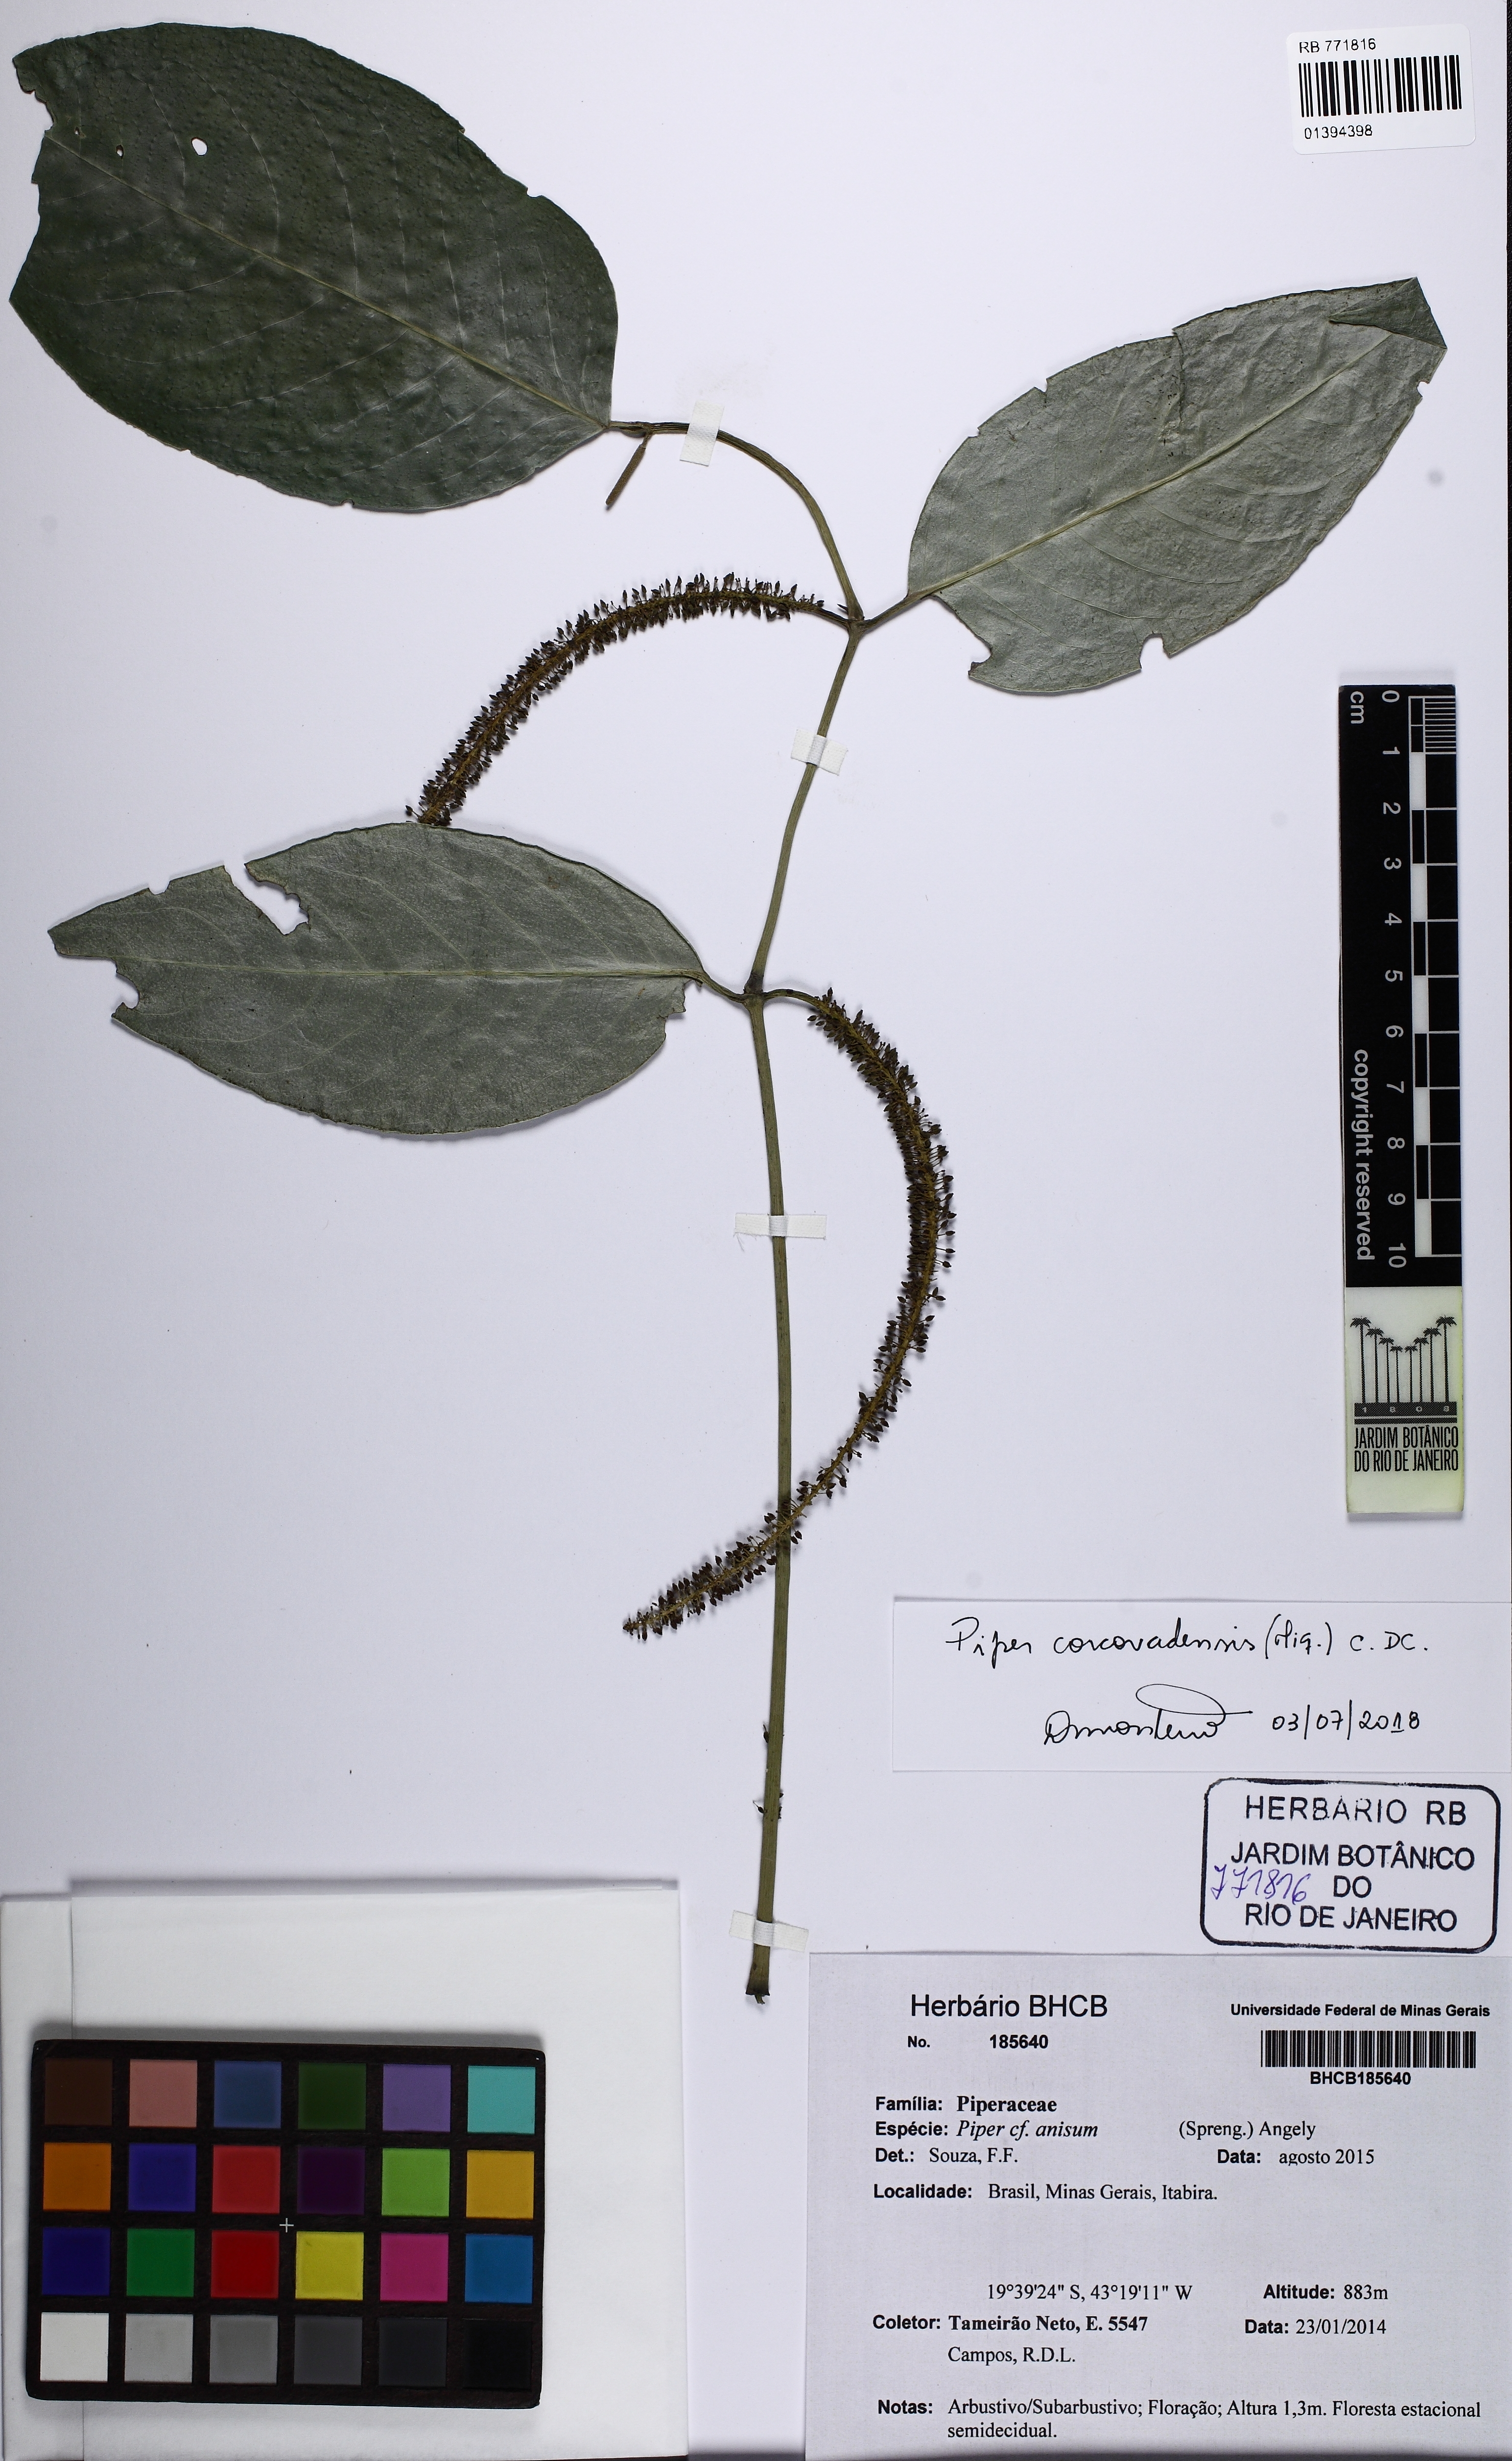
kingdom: Plantae
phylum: Tracheophyta
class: Magnoliopsida
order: Piperales
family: Piperaceae
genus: Piper
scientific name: Piper corcovadense
